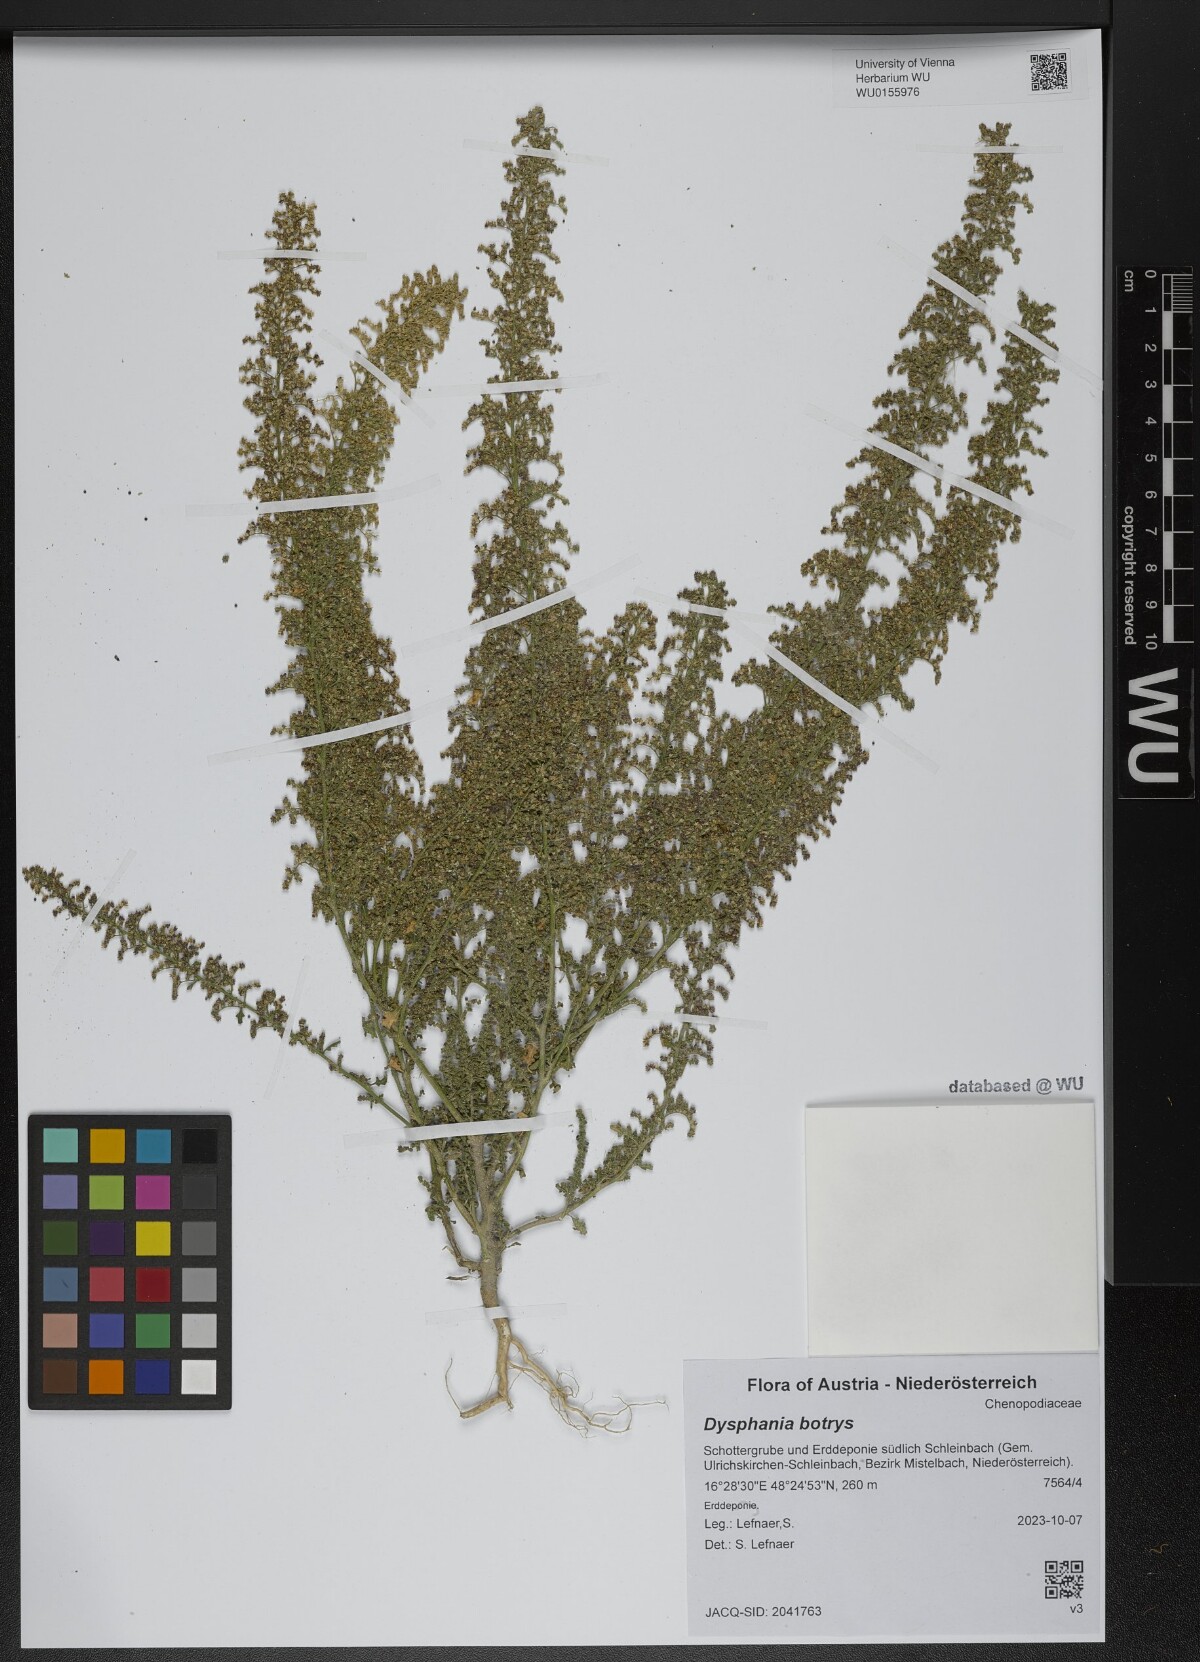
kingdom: Plantae
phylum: Tracheophyta
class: Magnoliopsida
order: Caryophyllales
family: Amaranthaceae
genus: Dysphania
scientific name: Dysphania botrys
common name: Feather-geranium
